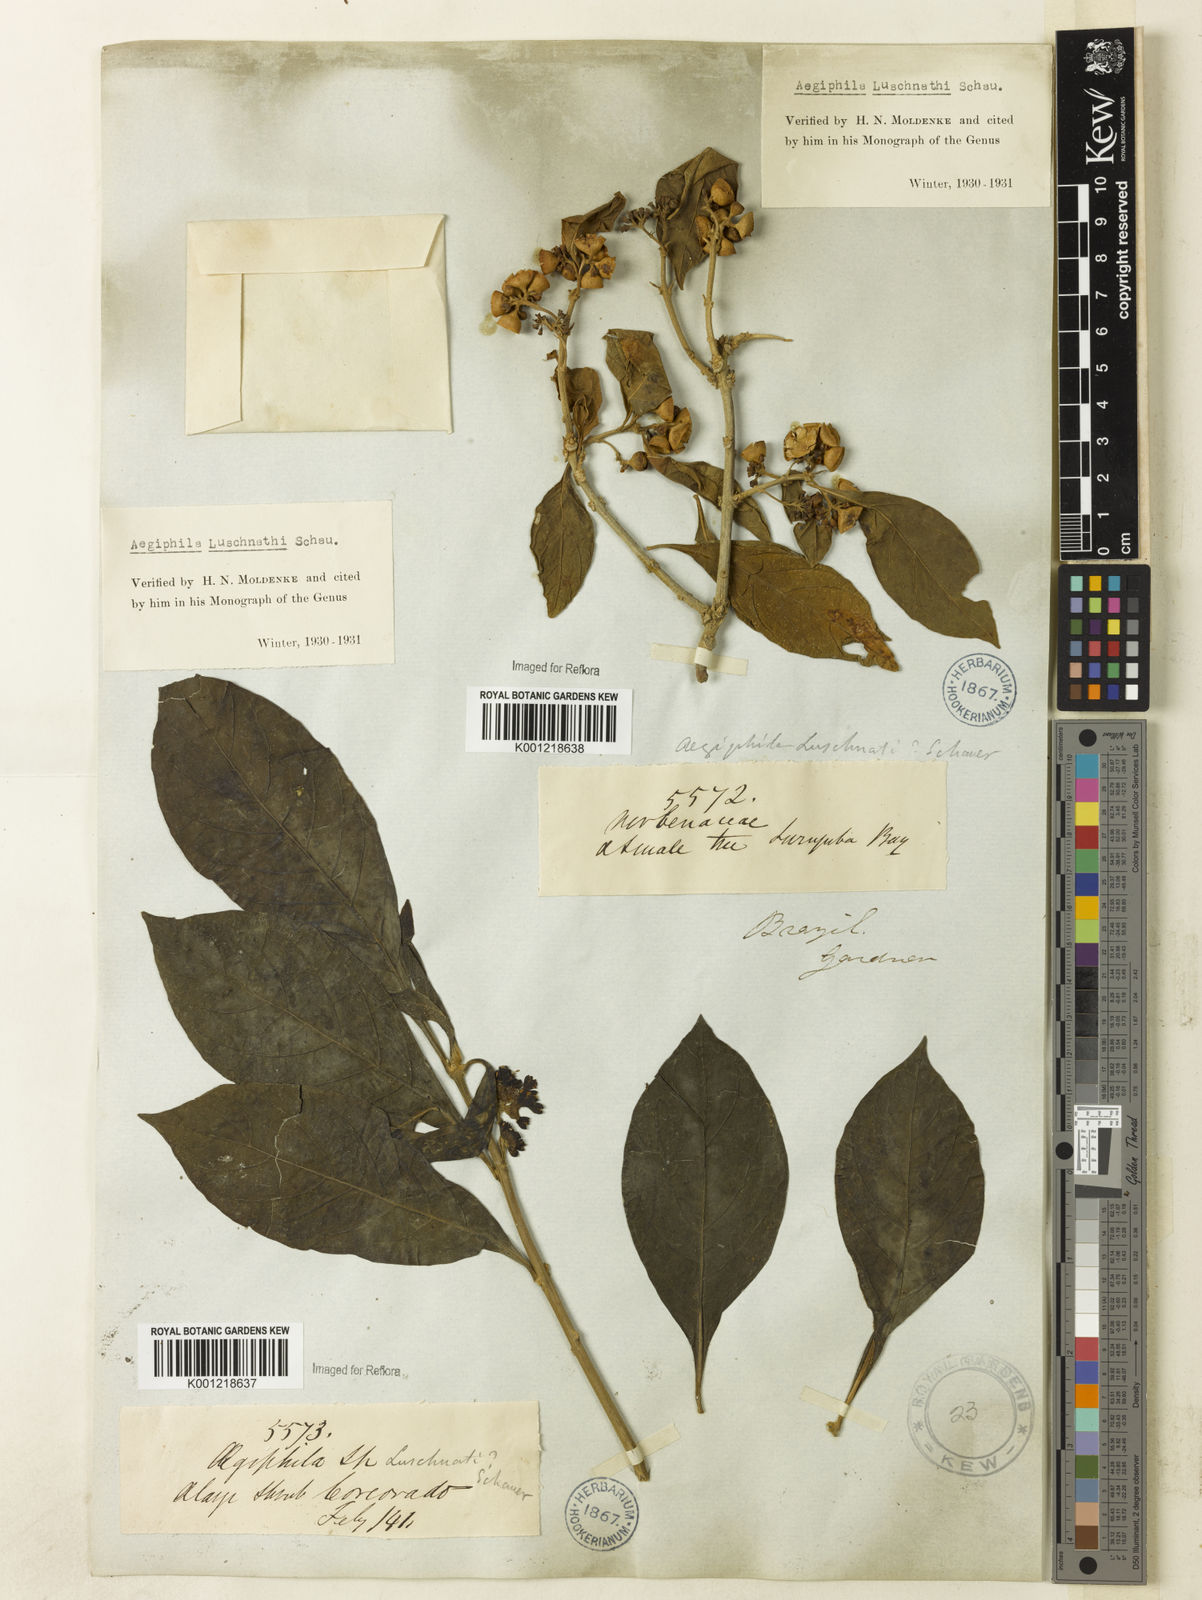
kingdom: Plantae
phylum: Tracheophyta
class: Magnoliopsida
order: Lamiales
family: Lamiaceae
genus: Aegiphila
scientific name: Aegiphila luschnathii
